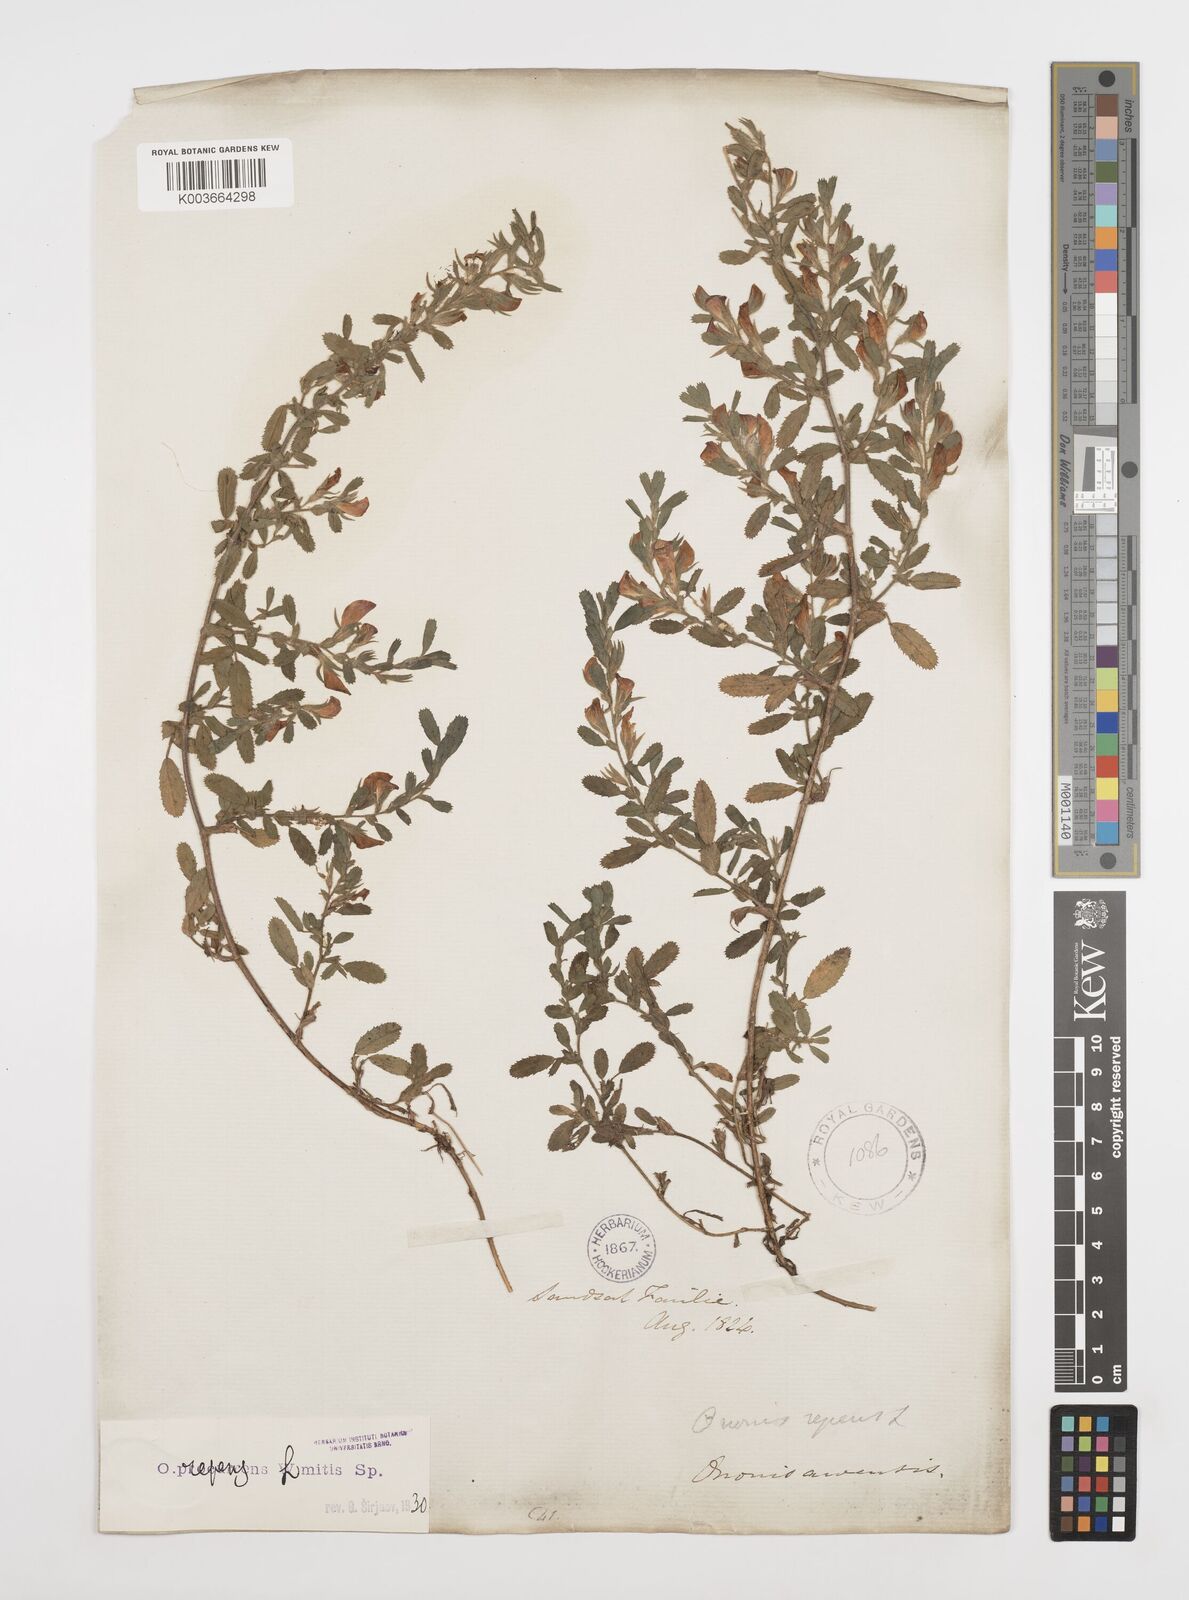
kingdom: Plantae
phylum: Tracheophyta
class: Magnoliopsida
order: Fabales
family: Fabaceae
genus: Ononis
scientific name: Ononis spinosa
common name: Spiny restharrow
